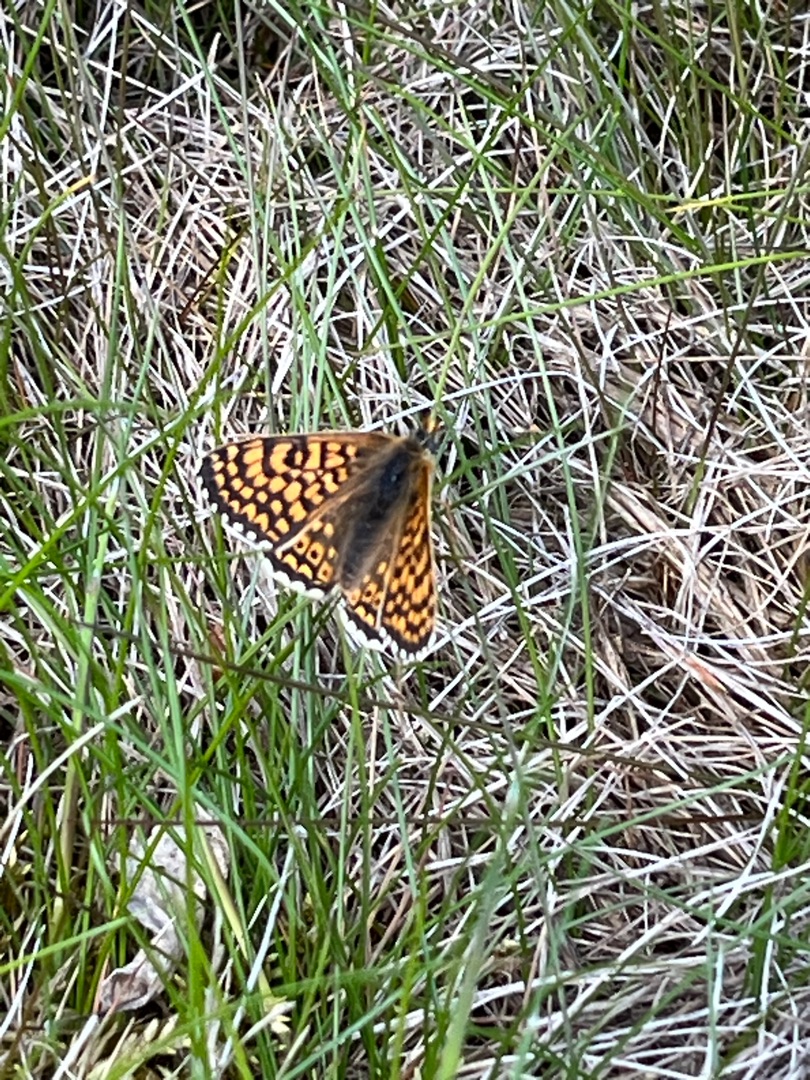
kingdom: Animalia
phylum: Arthropoda
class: Insecta
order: Lepidoptera
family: Nymphalidae
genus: Melitaea
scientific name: Melitaea cinxia
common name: Okkergul pletvinge
